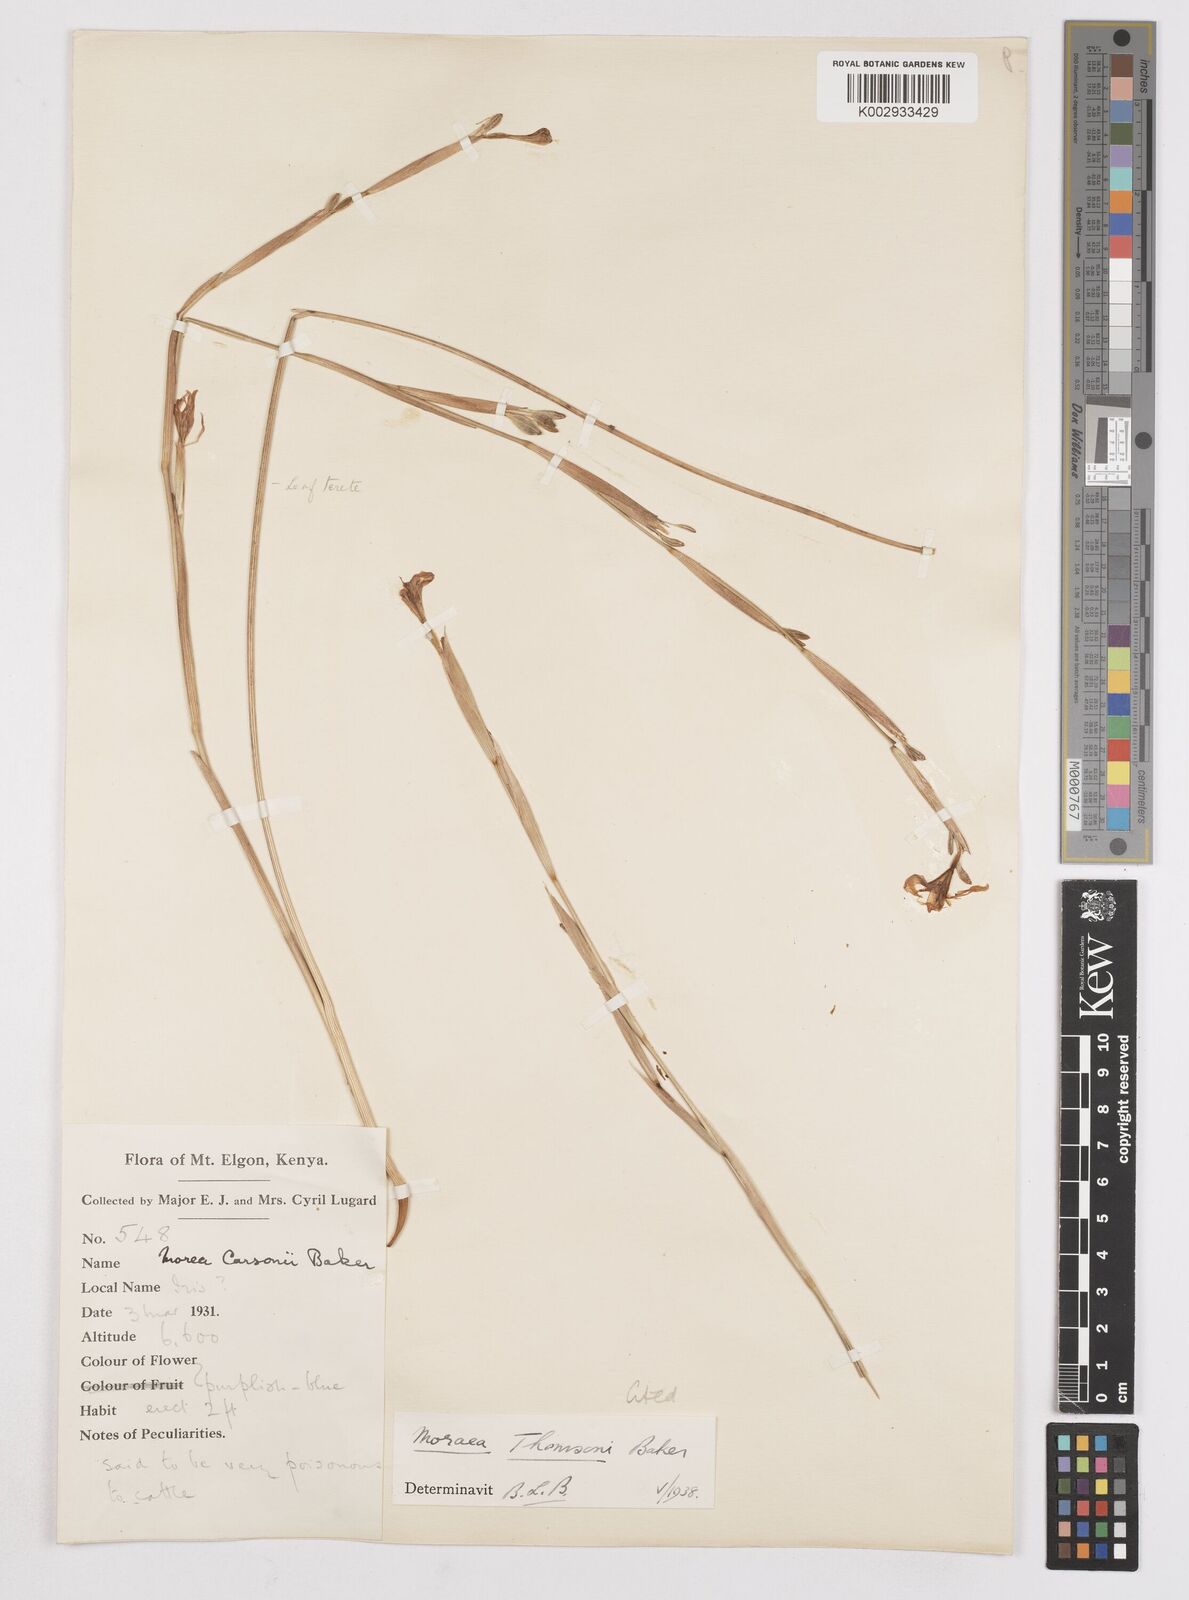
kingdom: Plantae
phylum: Tracheophyta
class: Liliopsida
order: Asparagales
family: Iridaceae
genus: Moraea
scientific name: Moraea thomsonii
